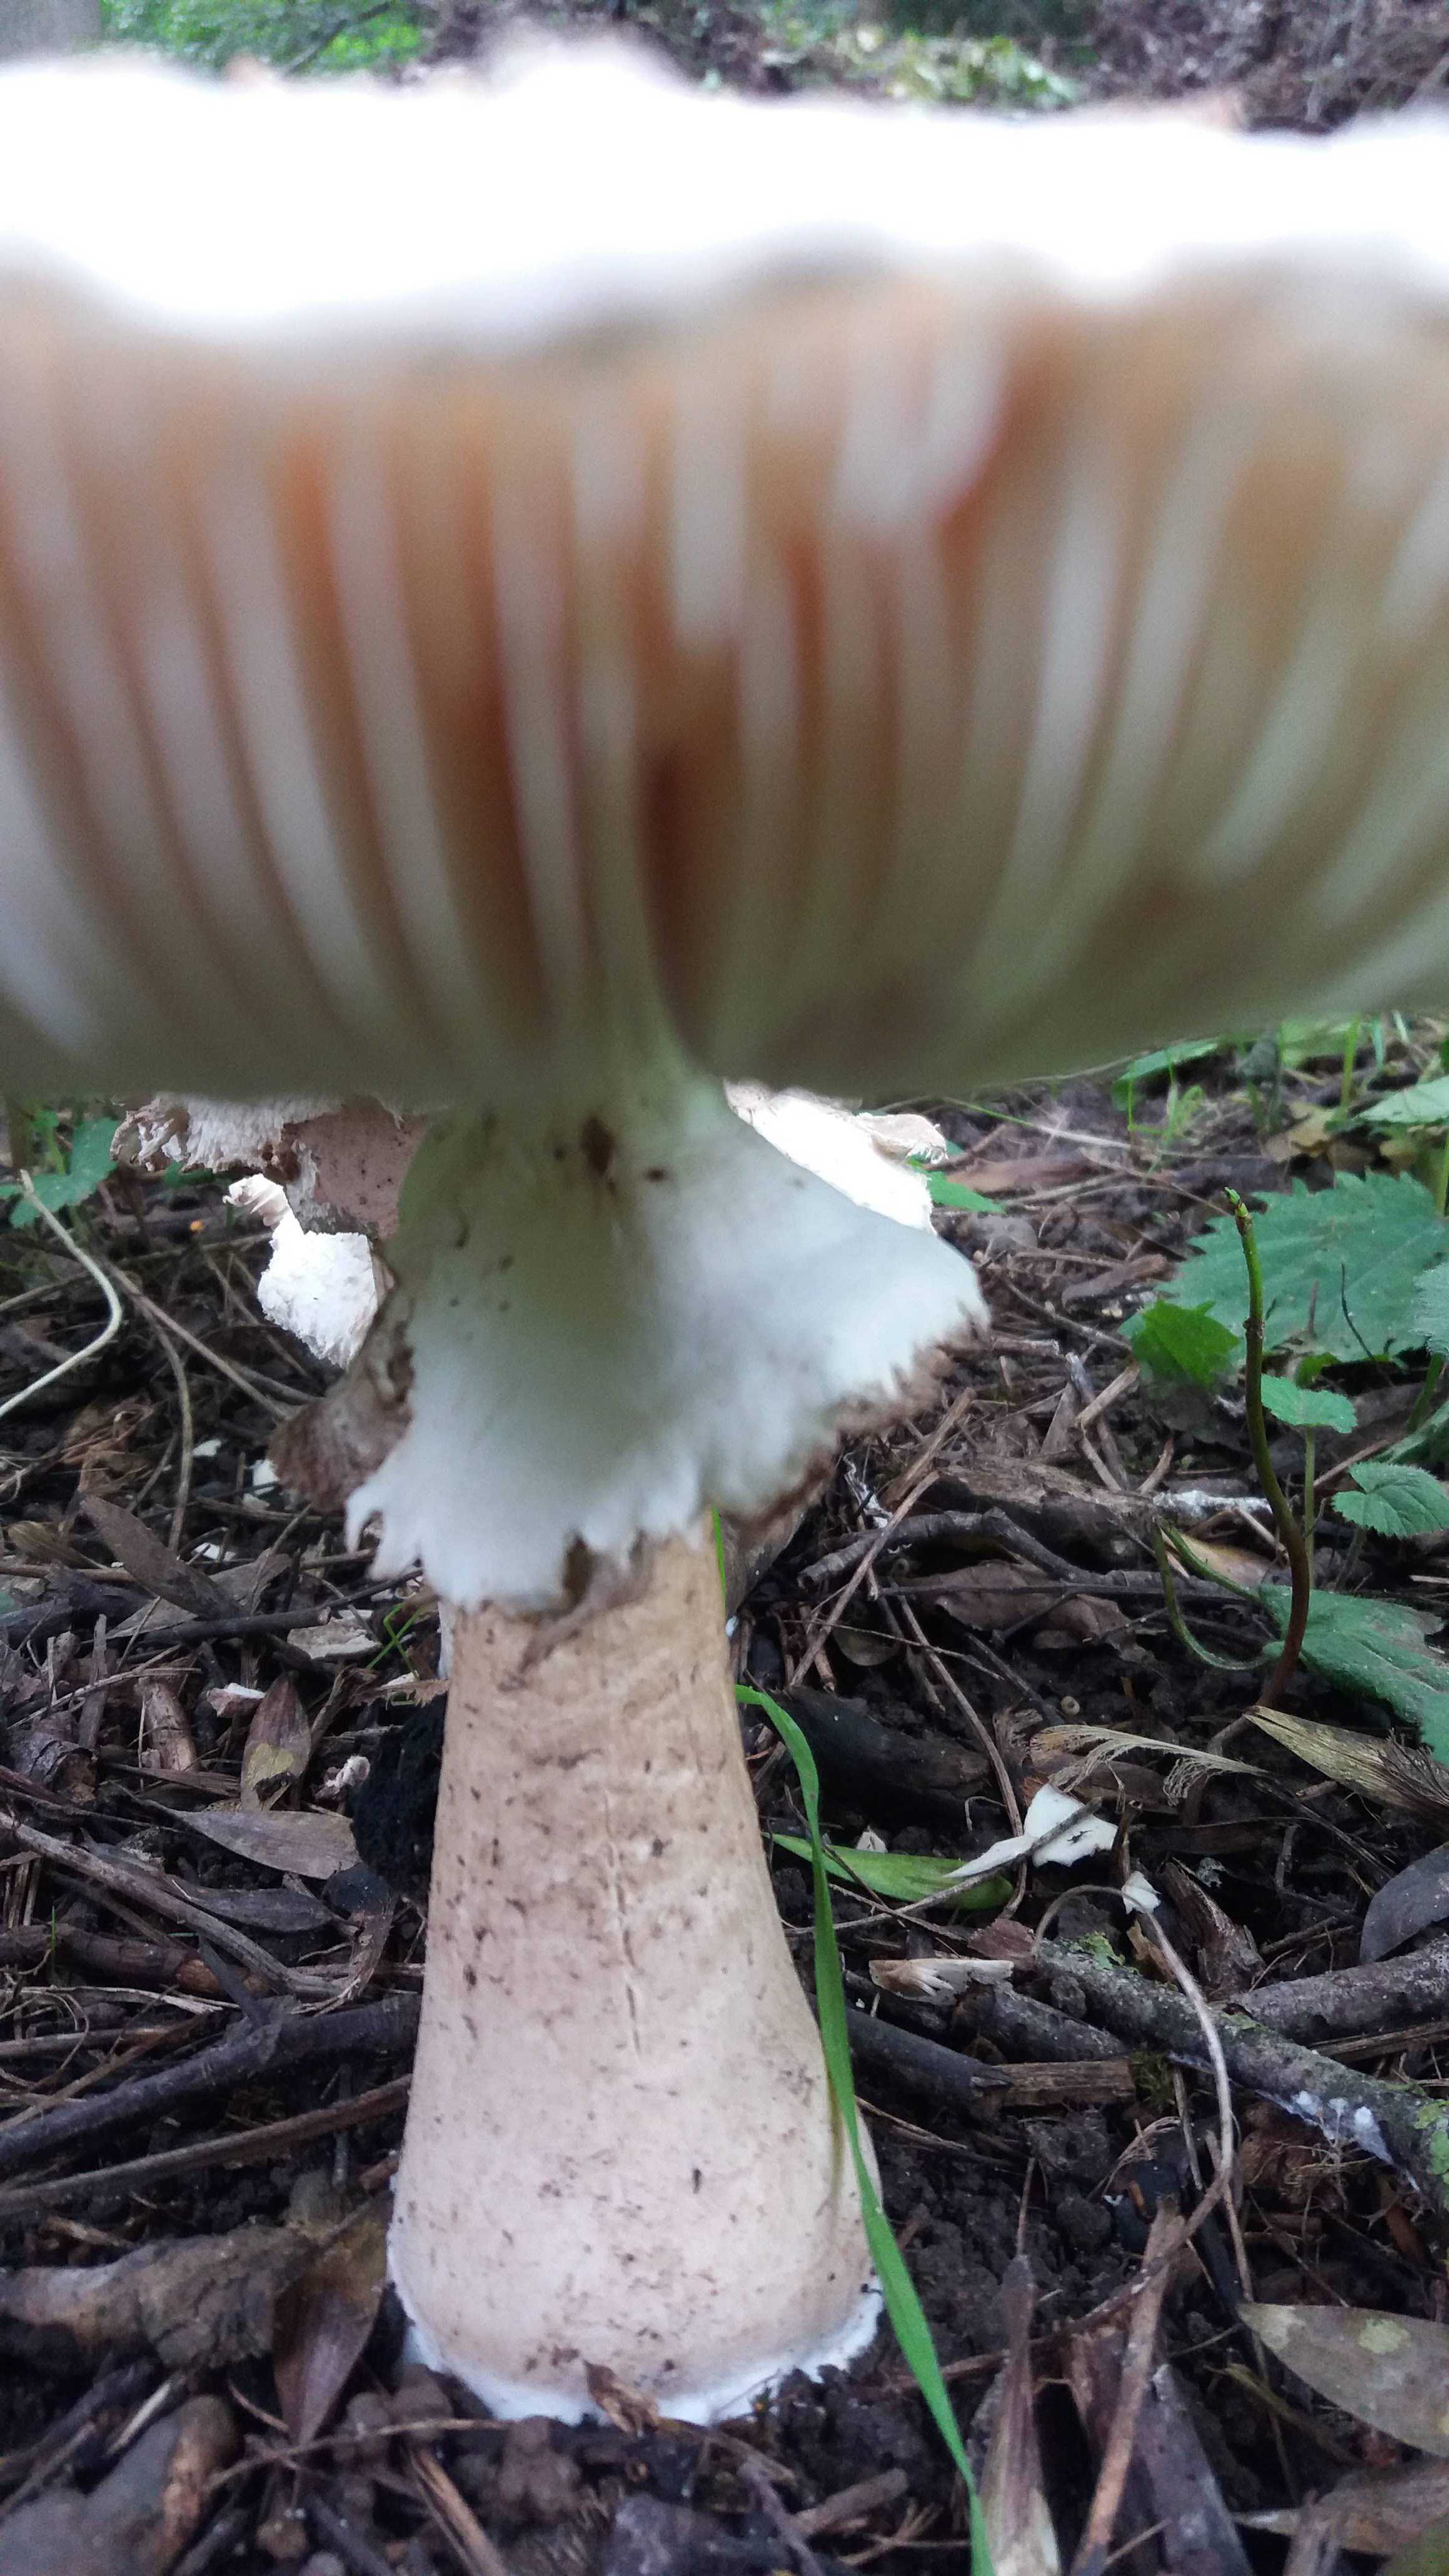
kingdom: Fungi
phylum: Basidiomycota
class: Agaricomycetes
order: Agaricales
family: Agaricaceae
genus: Chlorophyllum
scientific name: Chlorophyllum
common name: rabarberhat
